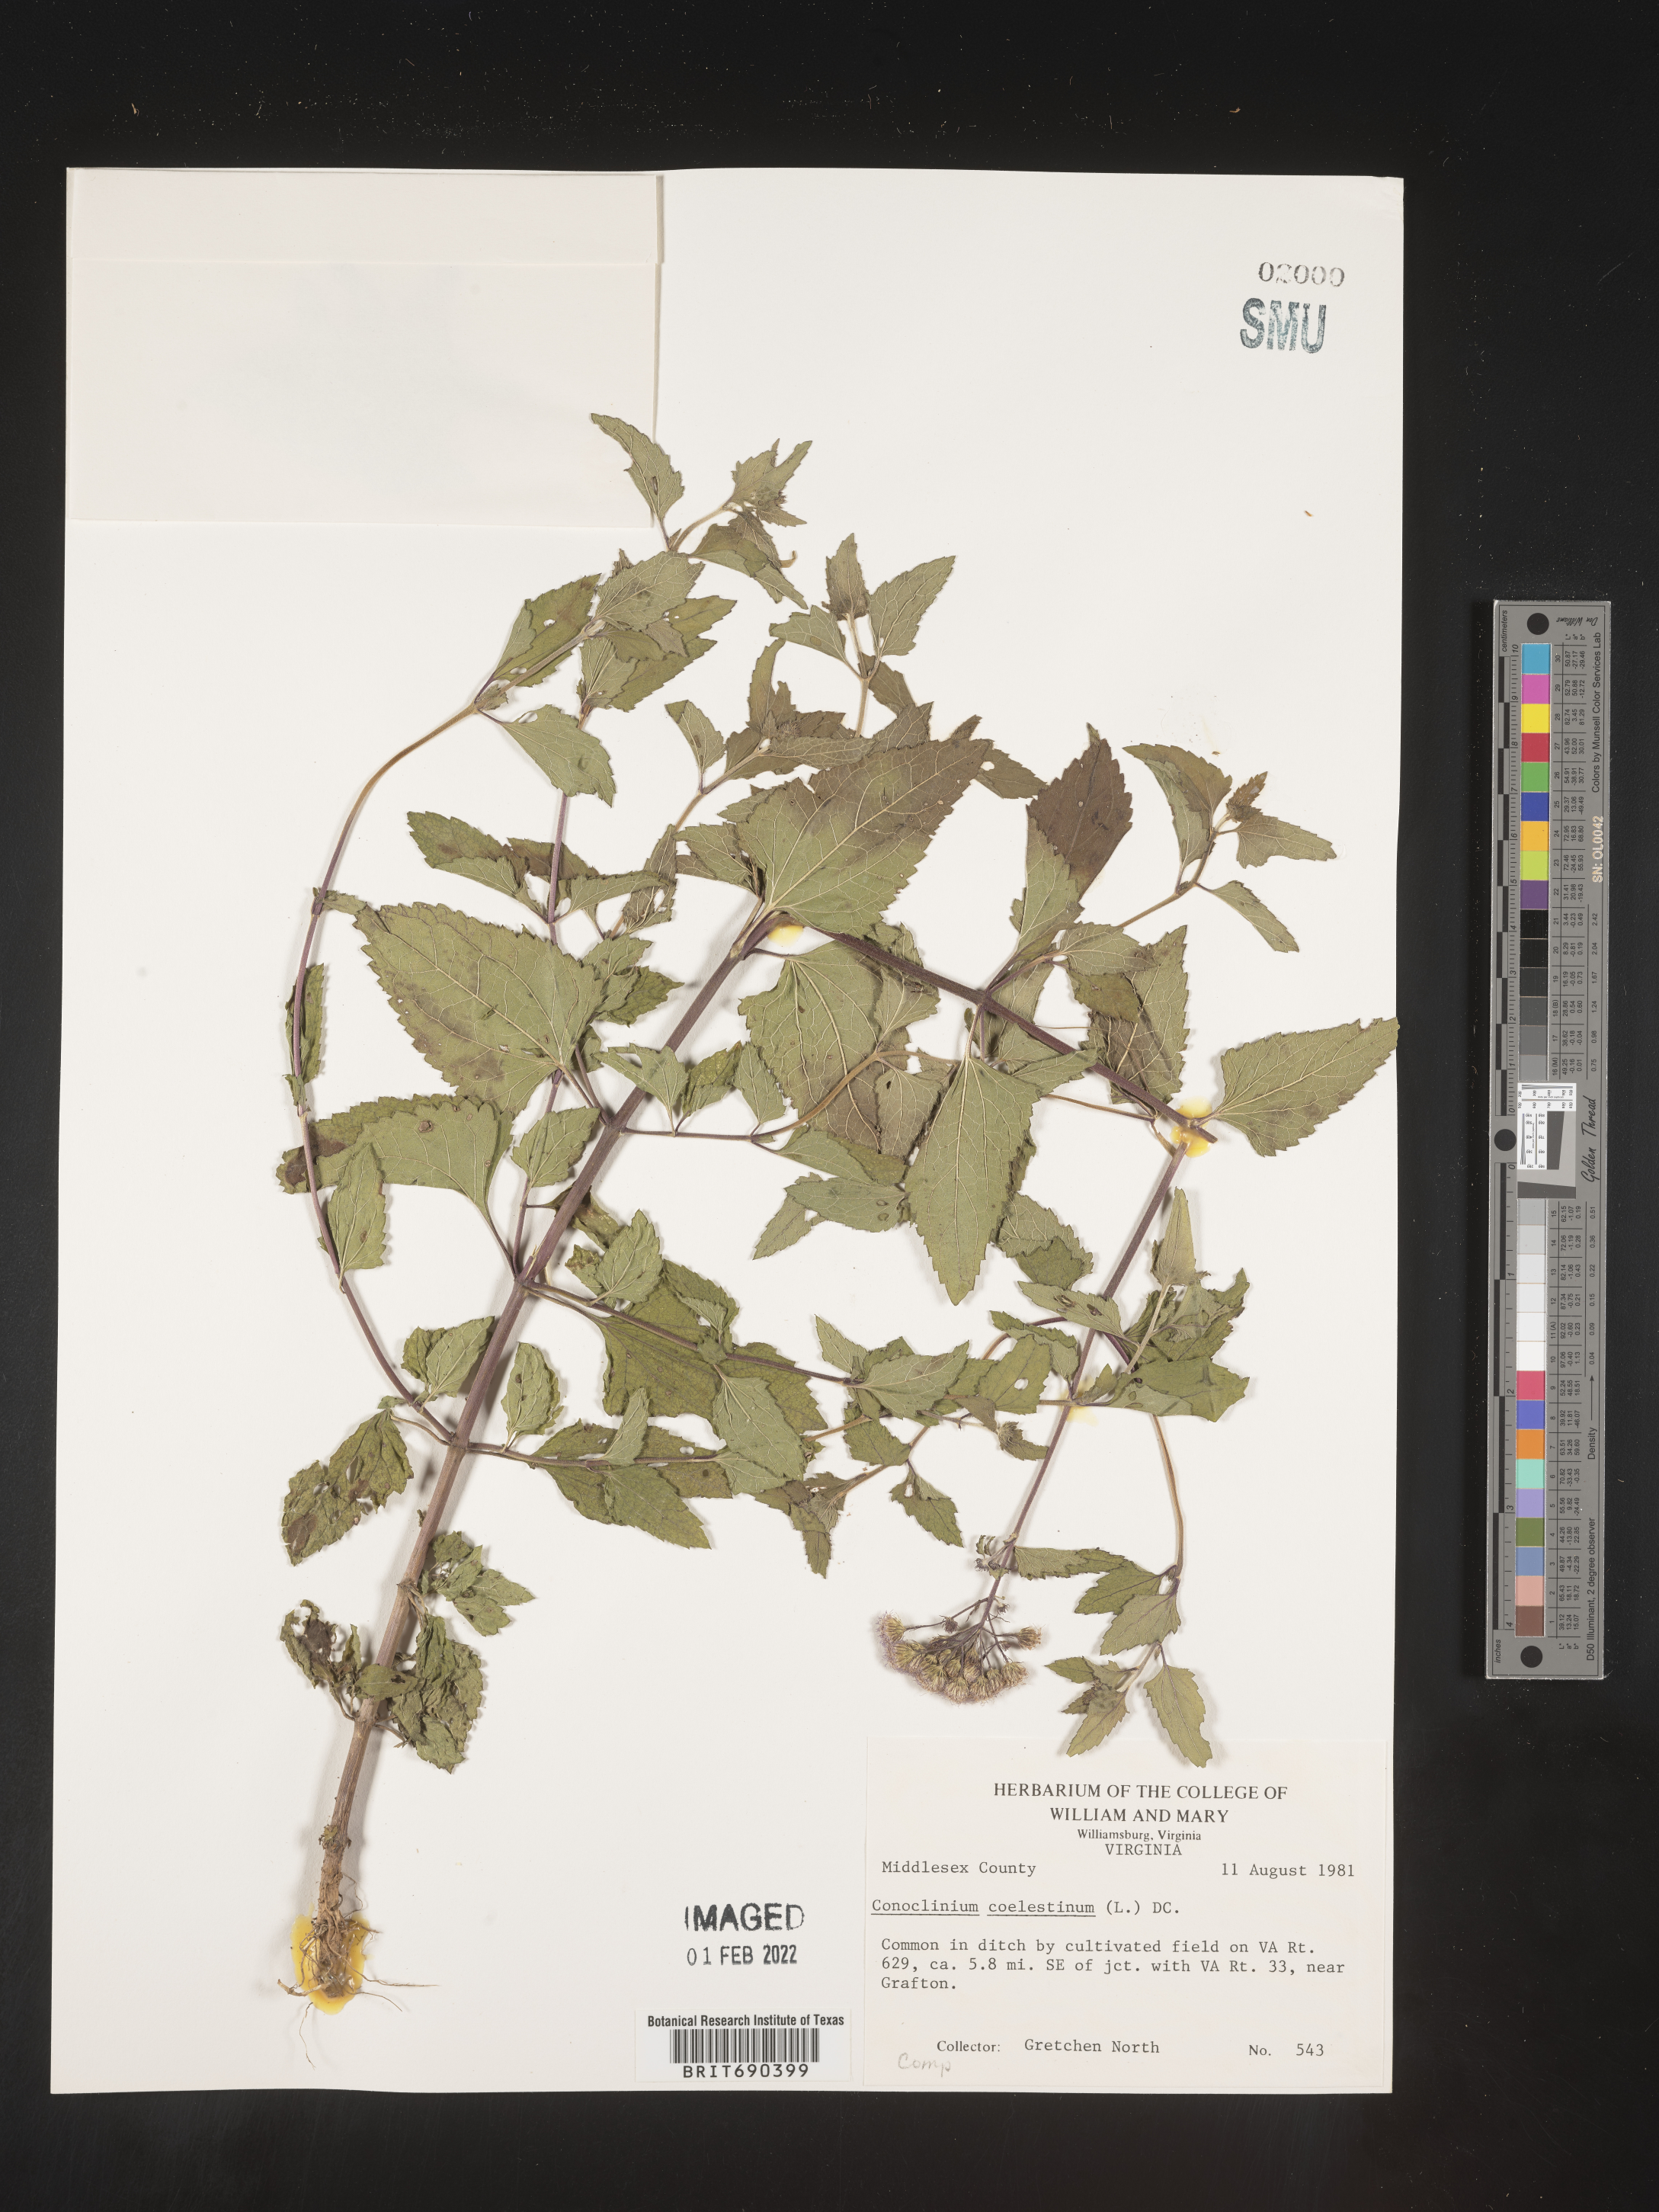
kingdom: Plantae
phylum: Tracheophyta
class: Magnoliopsida
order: Asterales
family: Asteraceae
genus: Conoclinium
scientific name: Conoclinium coelestinum
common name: Blue mistflower
